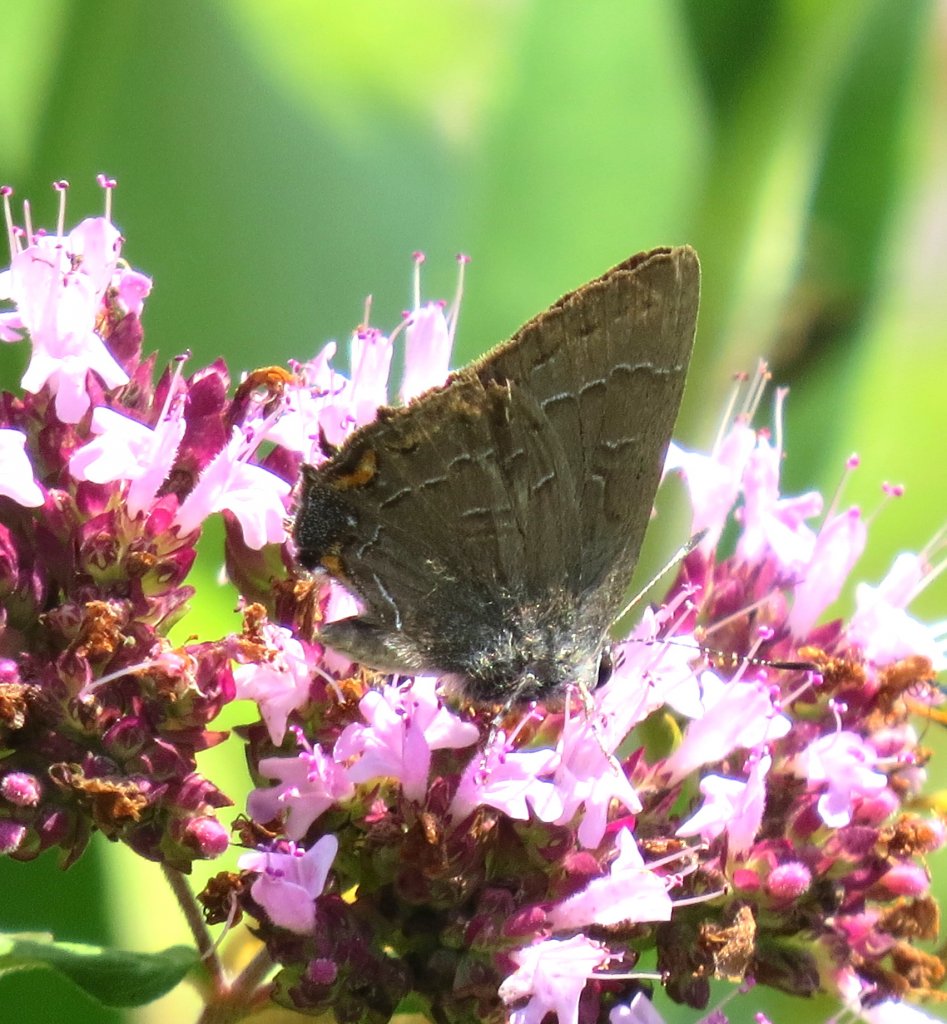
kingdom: Animalia
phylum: Arthropoda
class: Insecta
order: Lepidoptera
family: Lycaenidae
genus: Satyrium
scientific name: Satyrium calanus
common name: Banded Hairstreak
